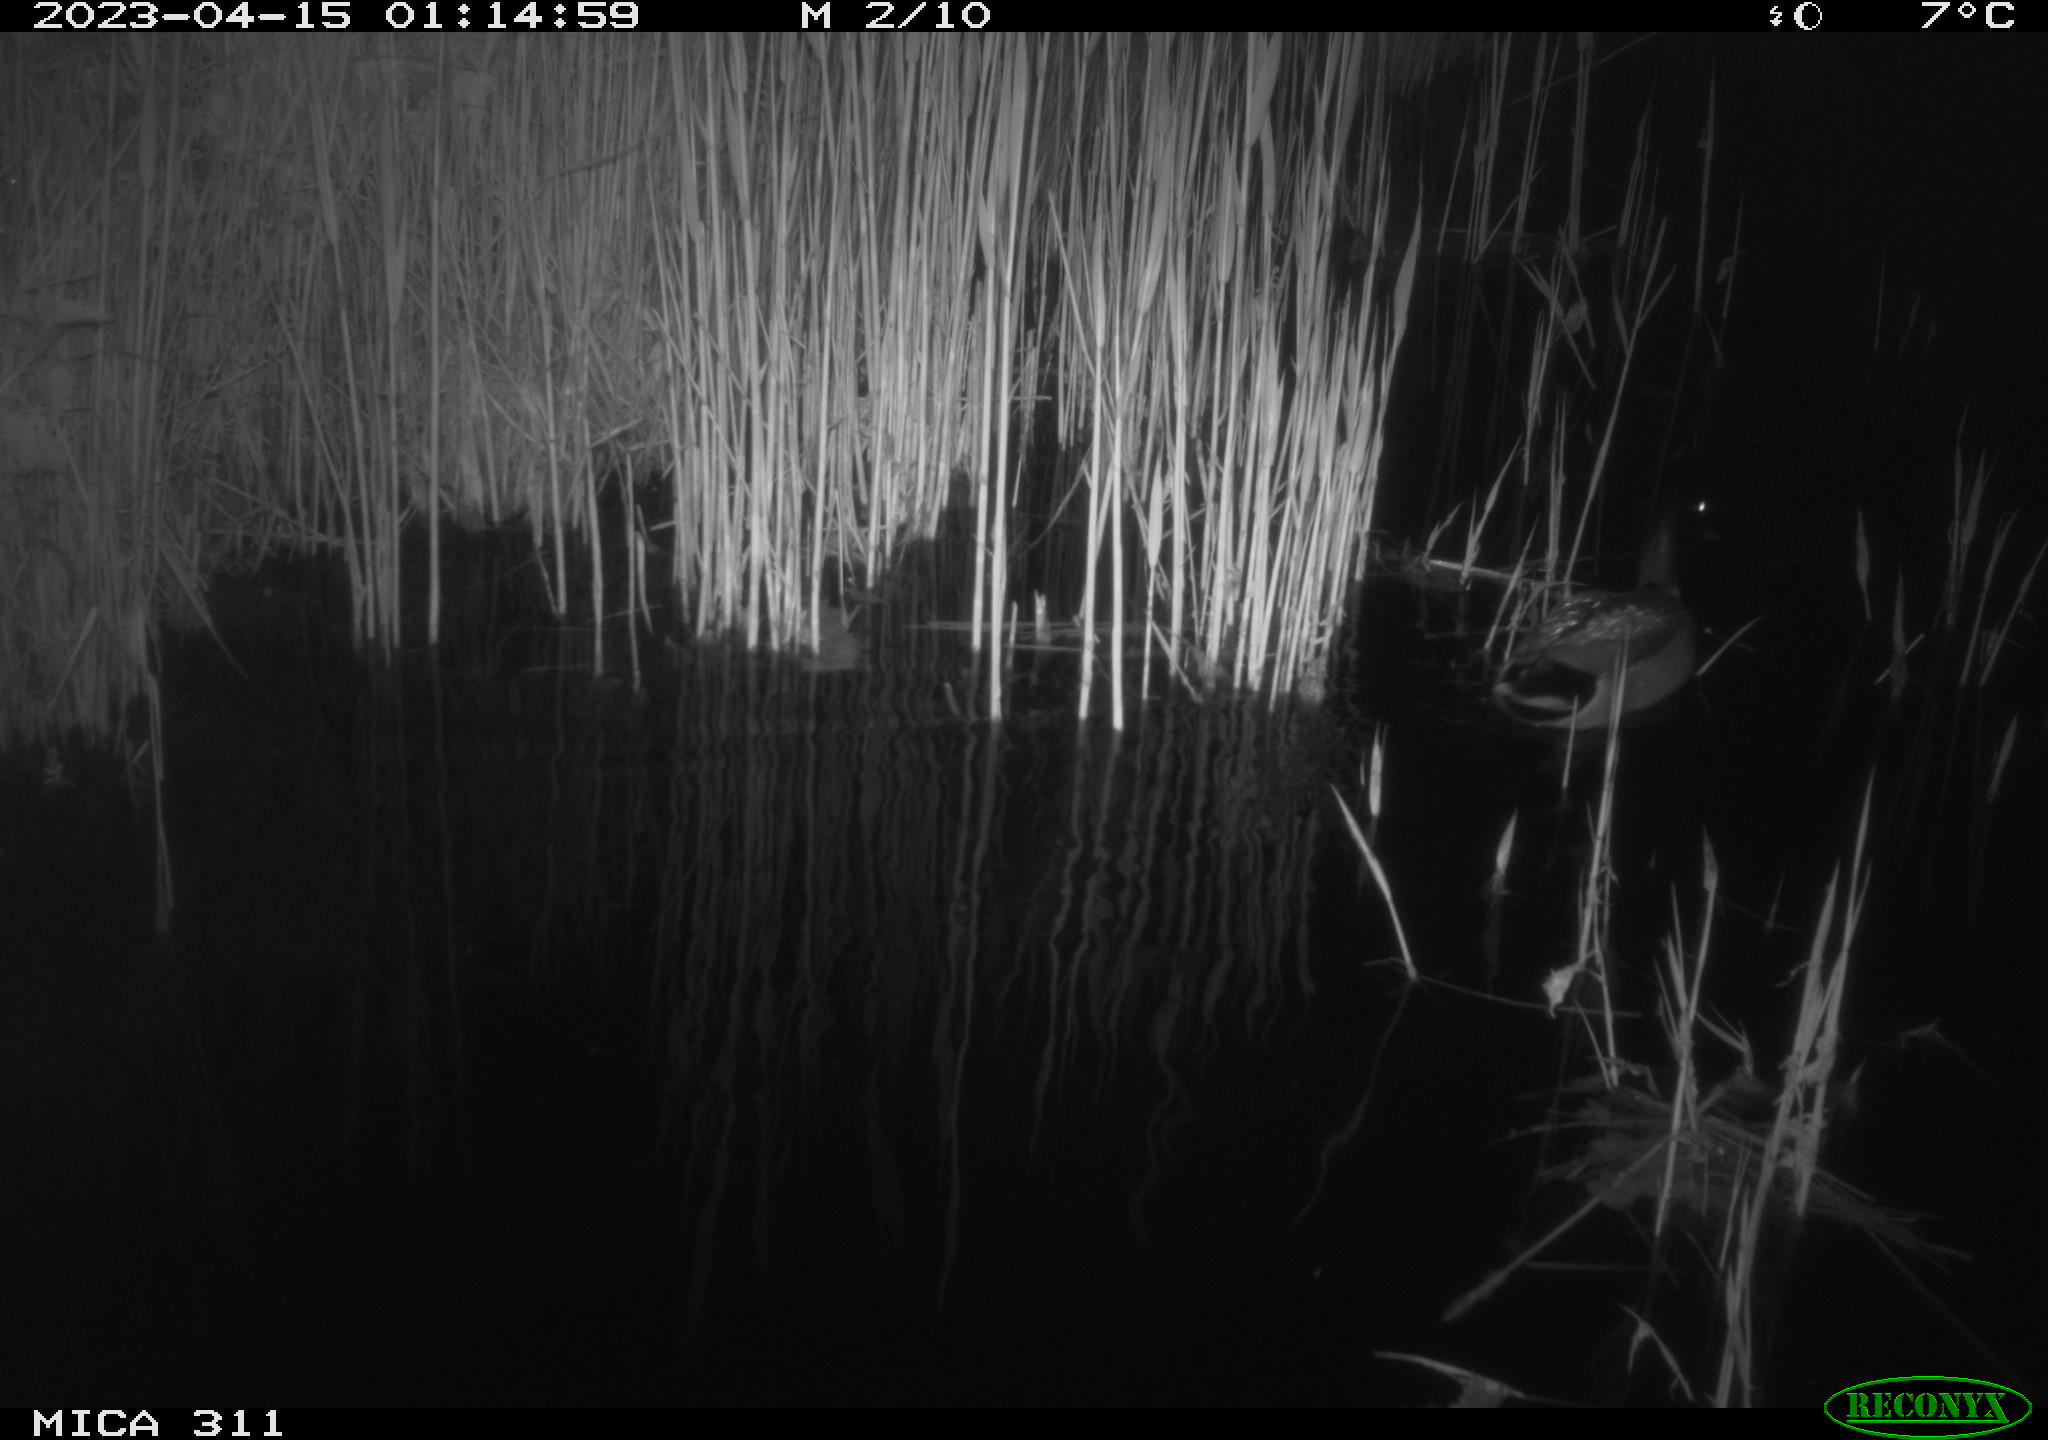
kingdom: Animalia
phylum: Chordata
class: Aves
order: Anseriformes
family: Anatidae
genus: Anas
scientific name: Anas
